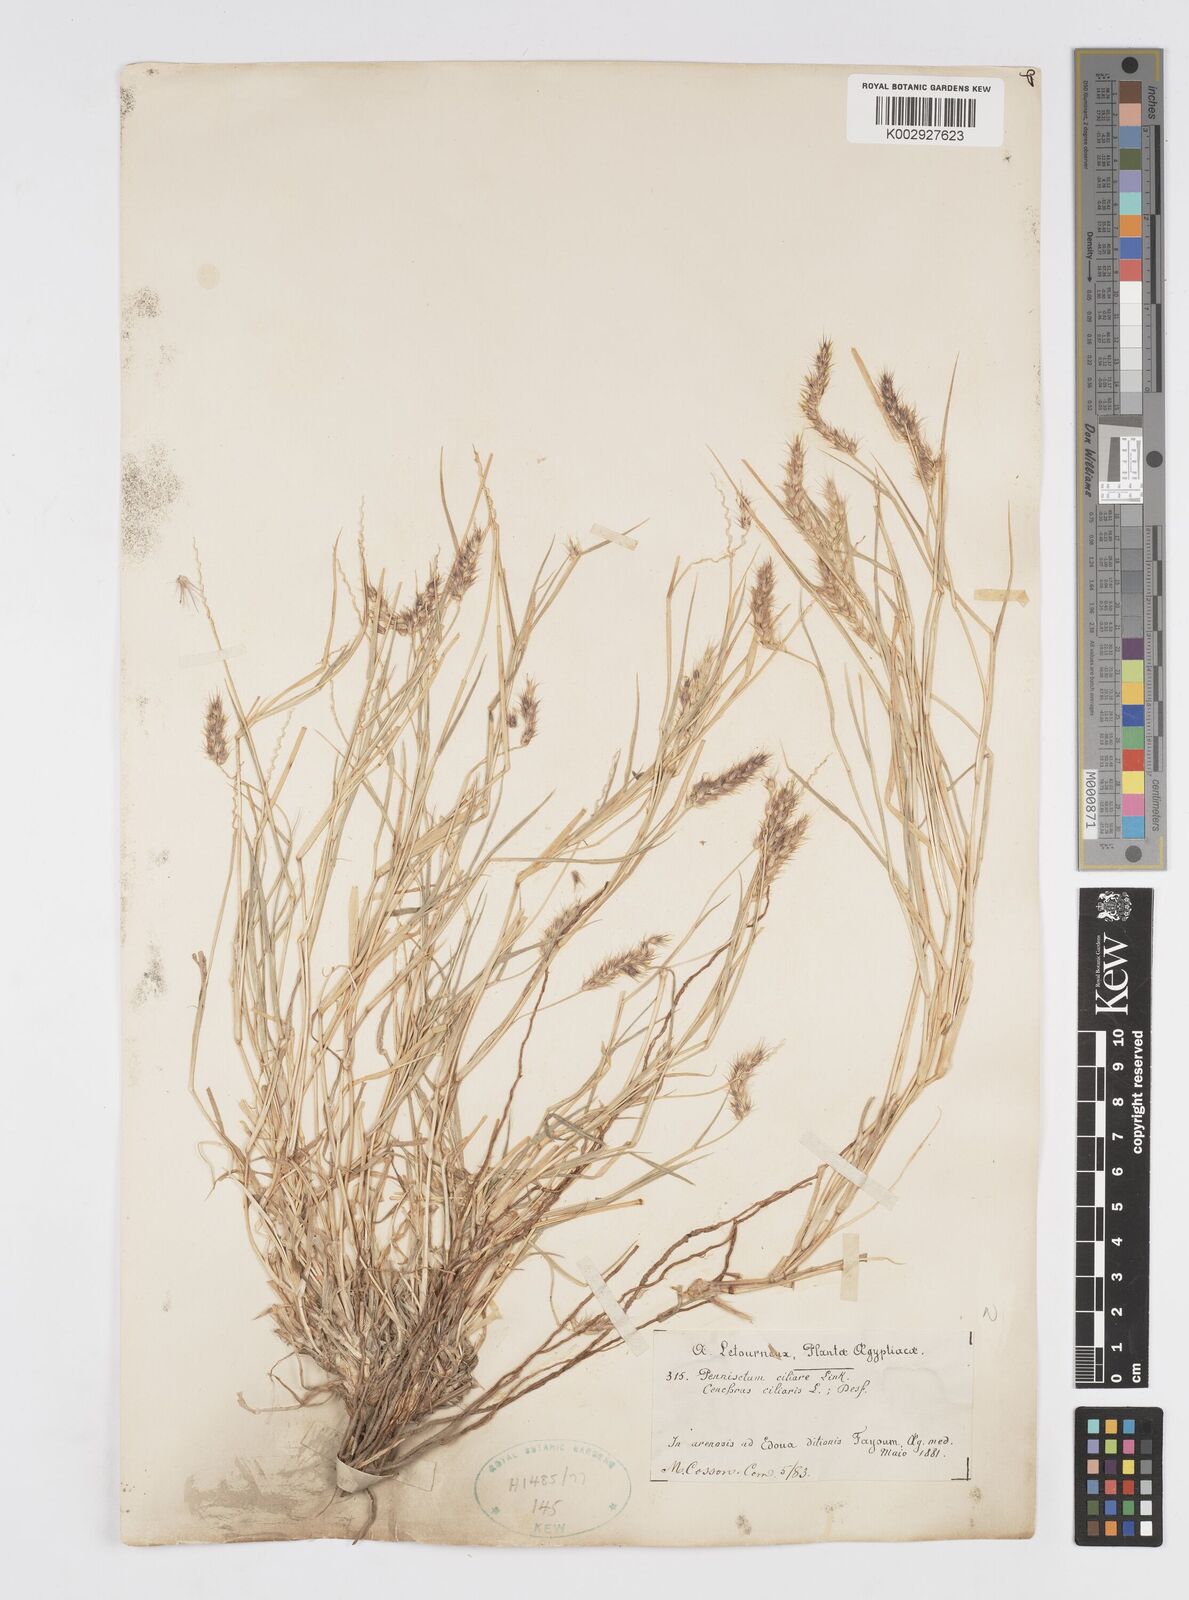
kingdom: Plantae
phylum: Tracheophyta
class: Liliopsida
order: Poales
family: Poaceae
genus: Cenchrus
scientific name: Cenchrus pennisetiformis
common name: Cloncurry
